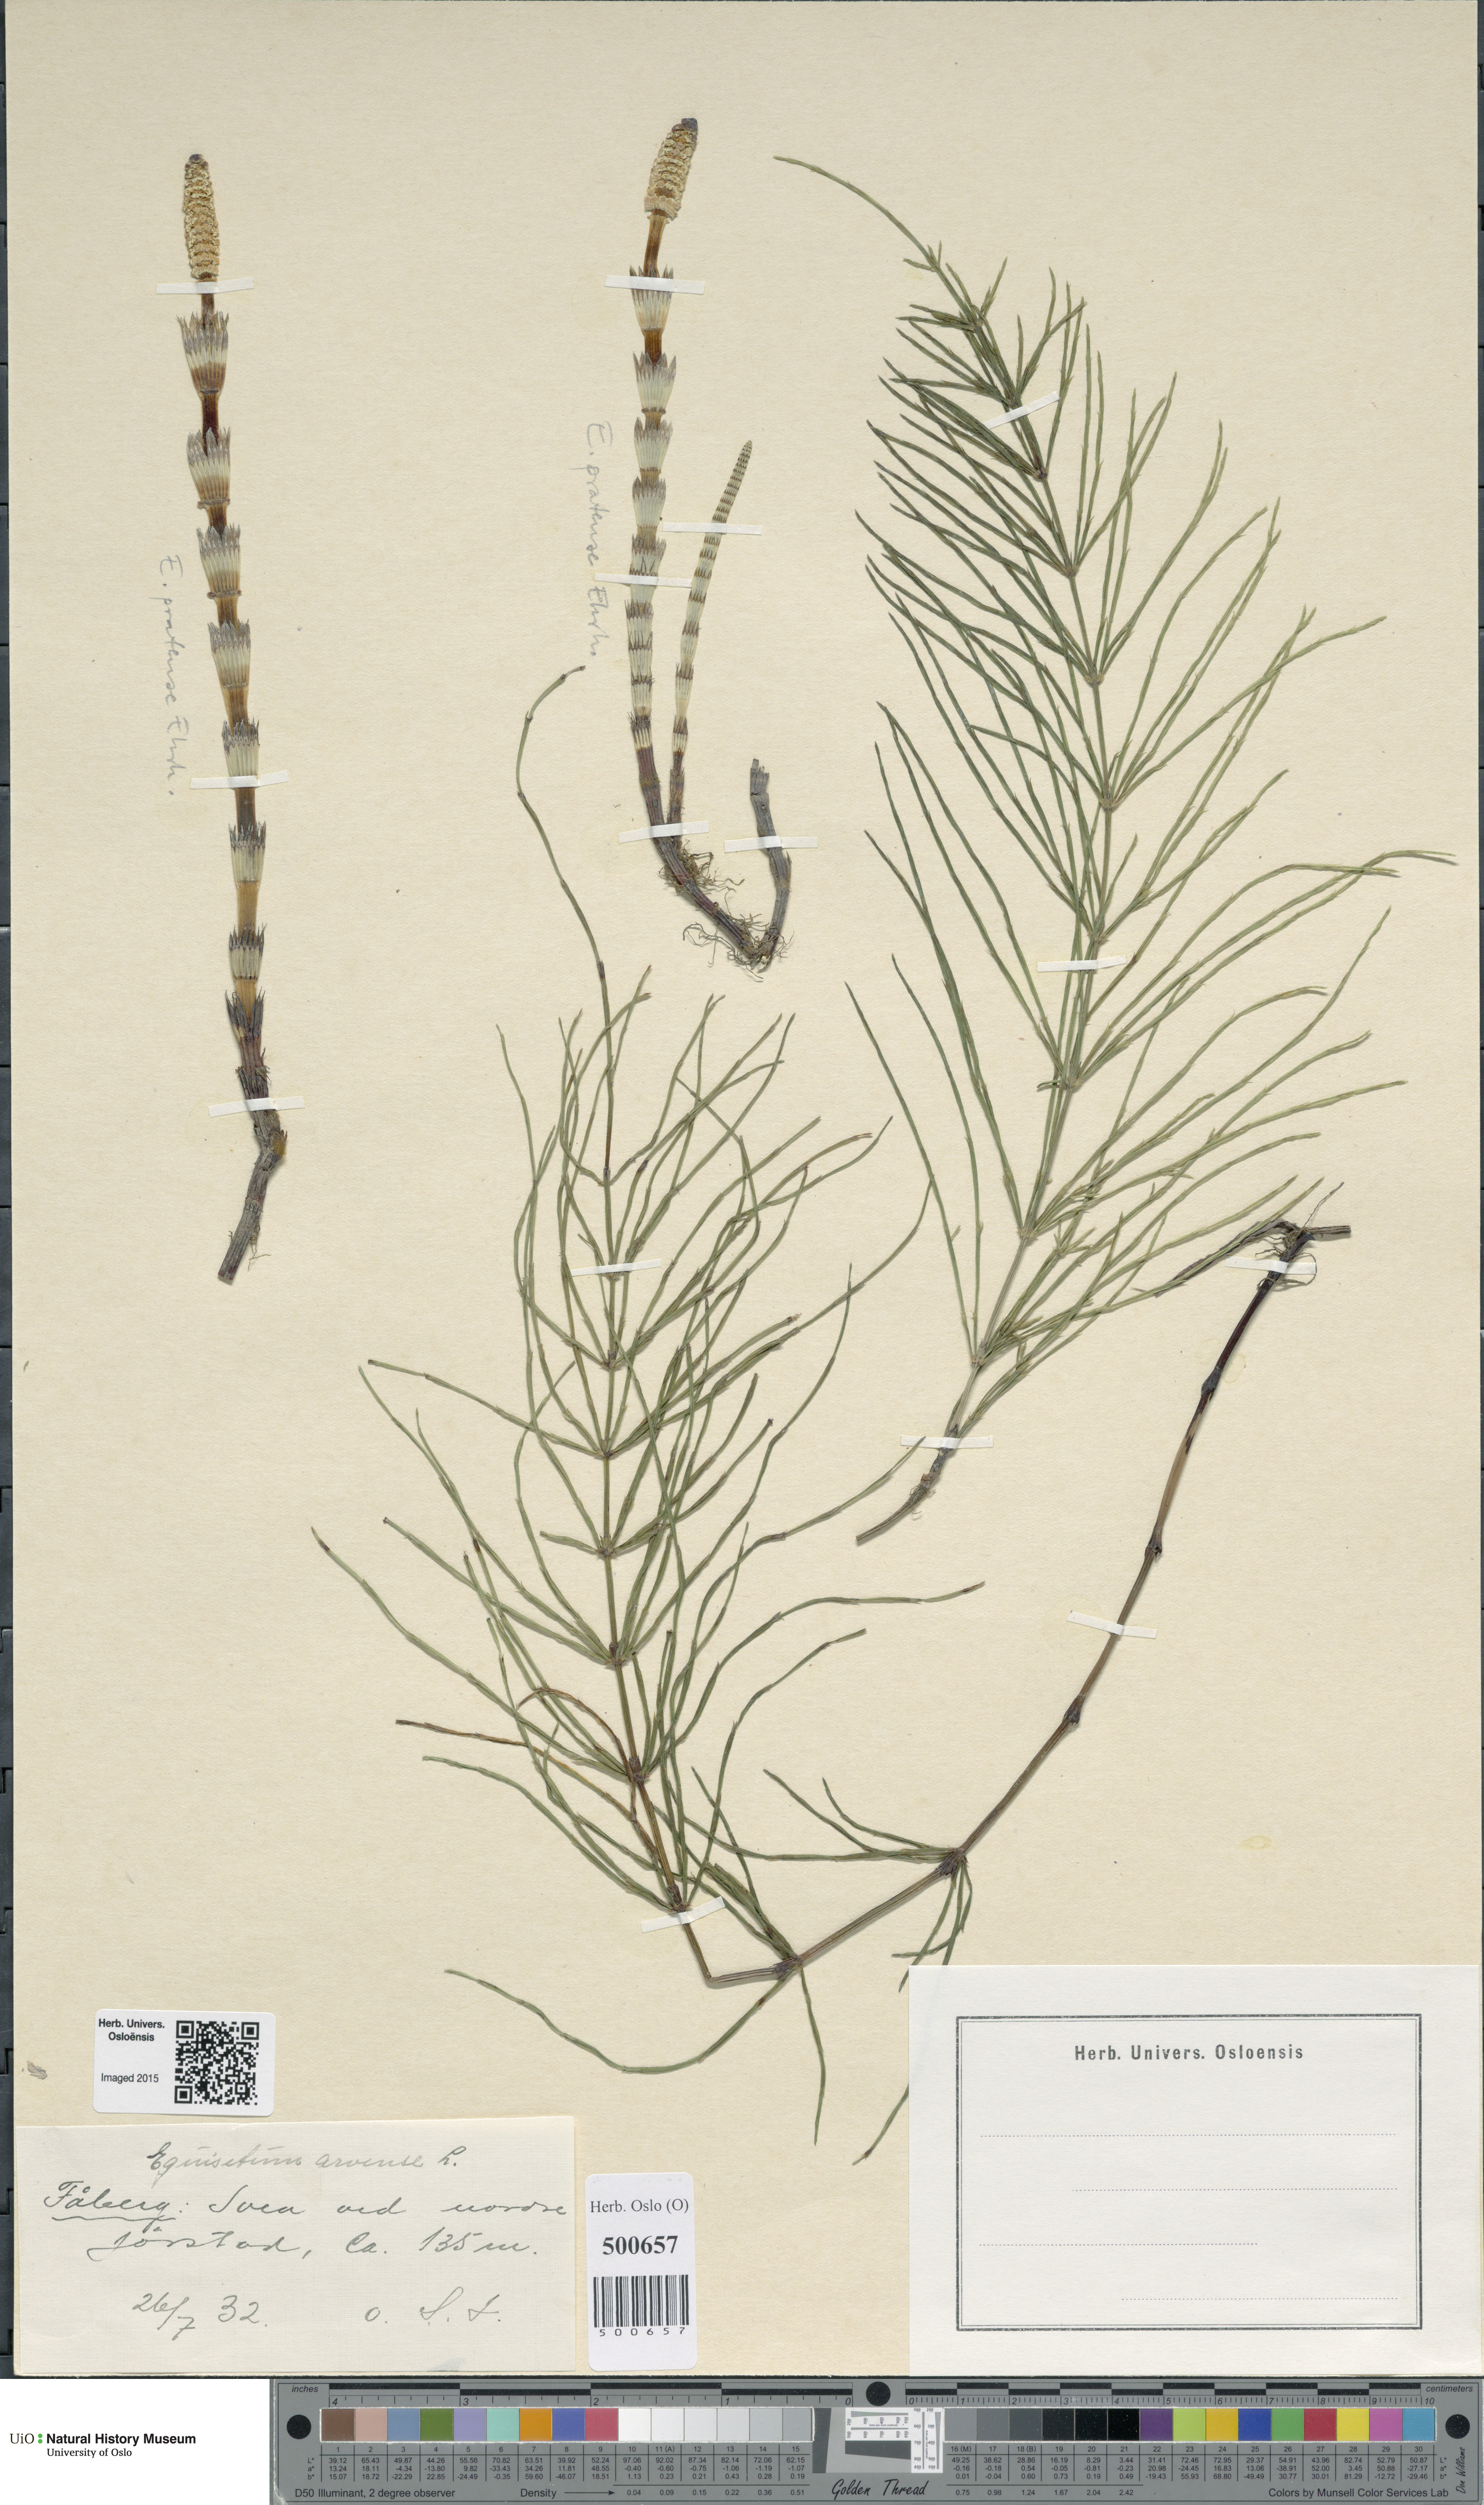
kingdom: Plantae
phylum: Tracheophyta
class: Polypodiopsida
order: Equisetales
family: Equisetaceae
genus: Equisetum
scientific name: Equisetum arvense
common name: Field horsetail
